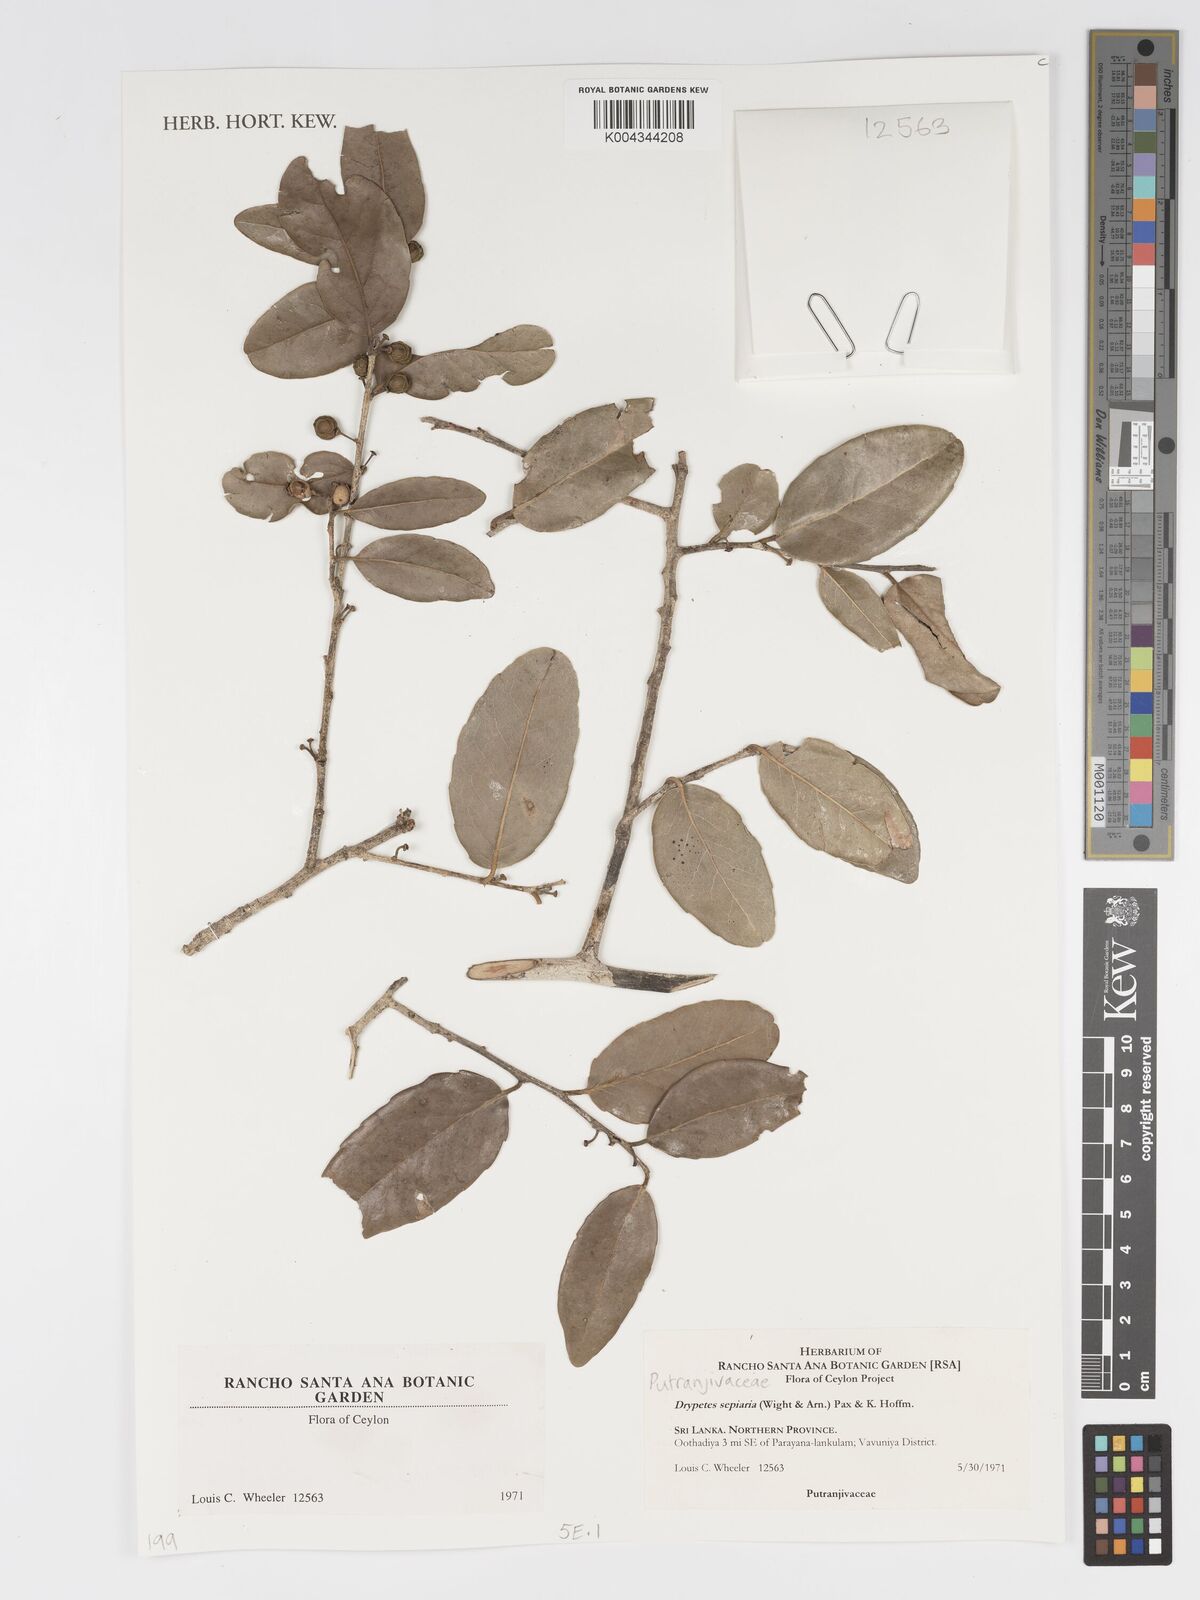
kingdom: Plantae
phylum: Tracheophyta
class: Magnoliopsida
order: Malpighiales
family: Putranjivaceae
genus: Drypetes
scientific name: Drypetes sepiaria
